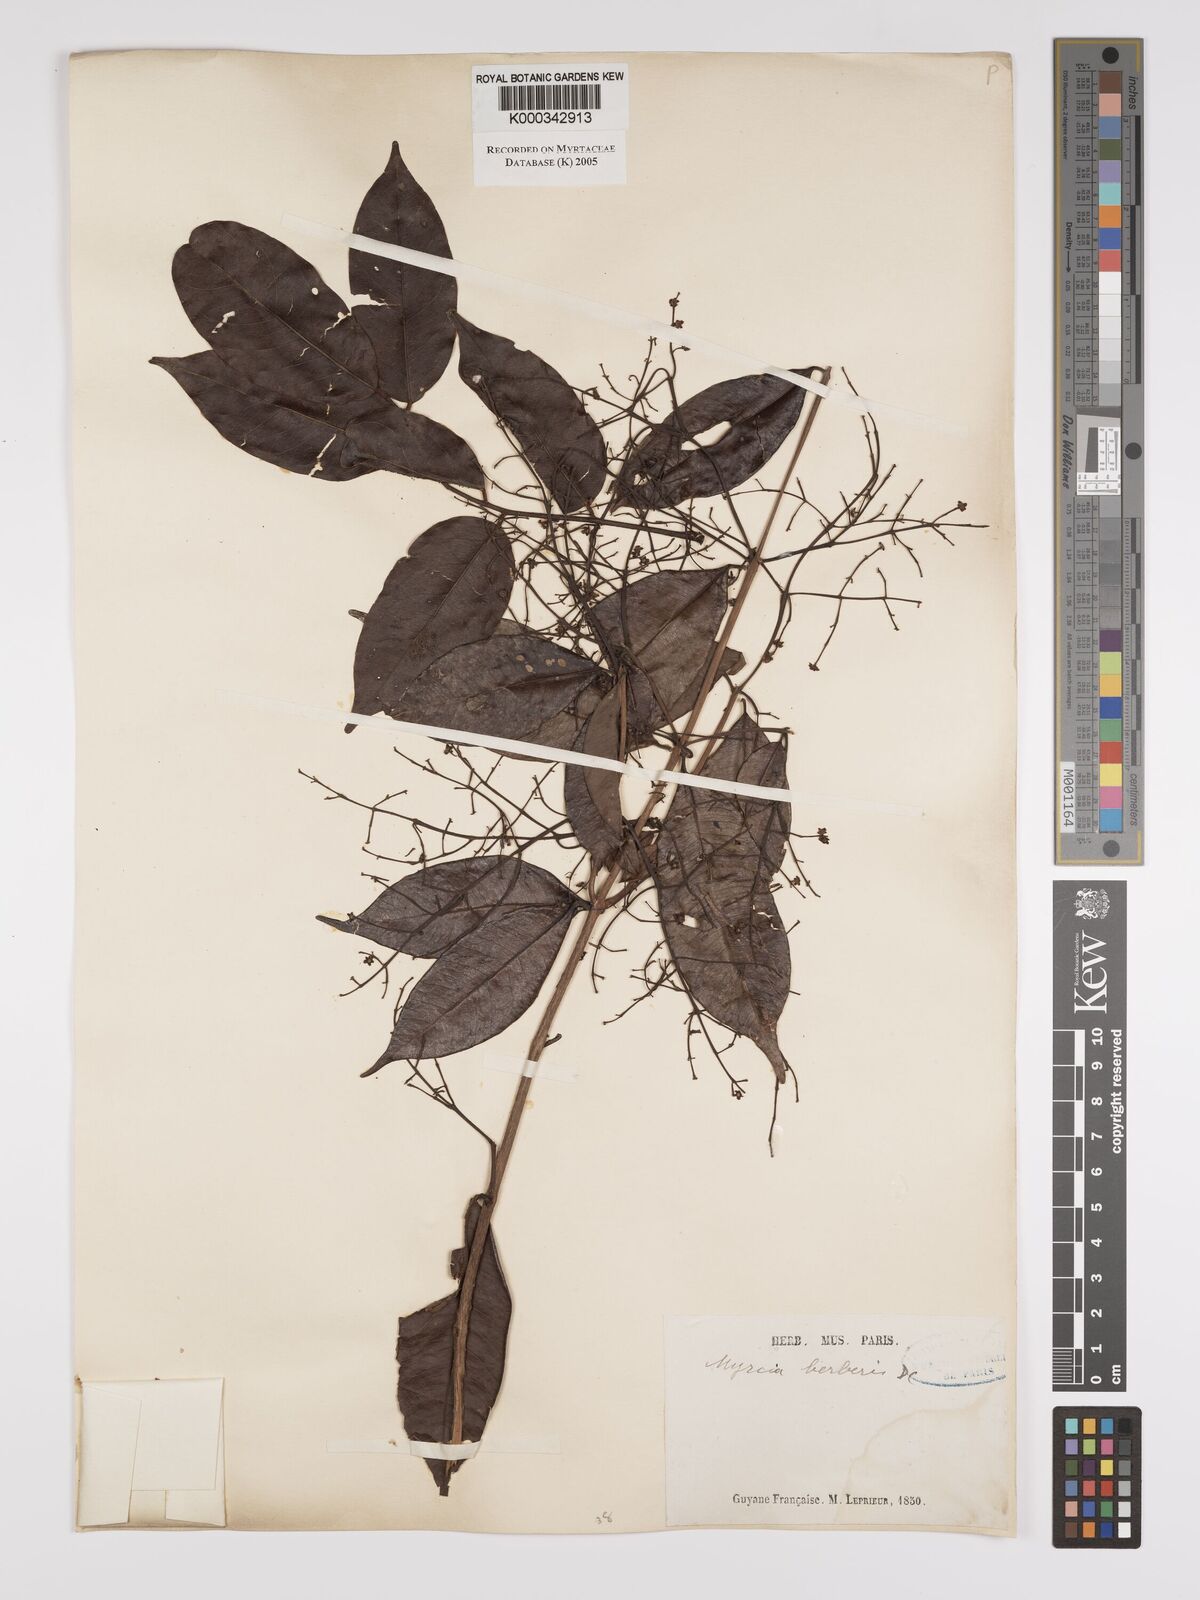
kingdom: Plantae
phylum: Tracheophyta
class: Magnoliopsida
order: Myrtales
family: Myrtaceae
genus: Myrcia
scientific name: Myrcia splendens
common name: Surinam cherry
